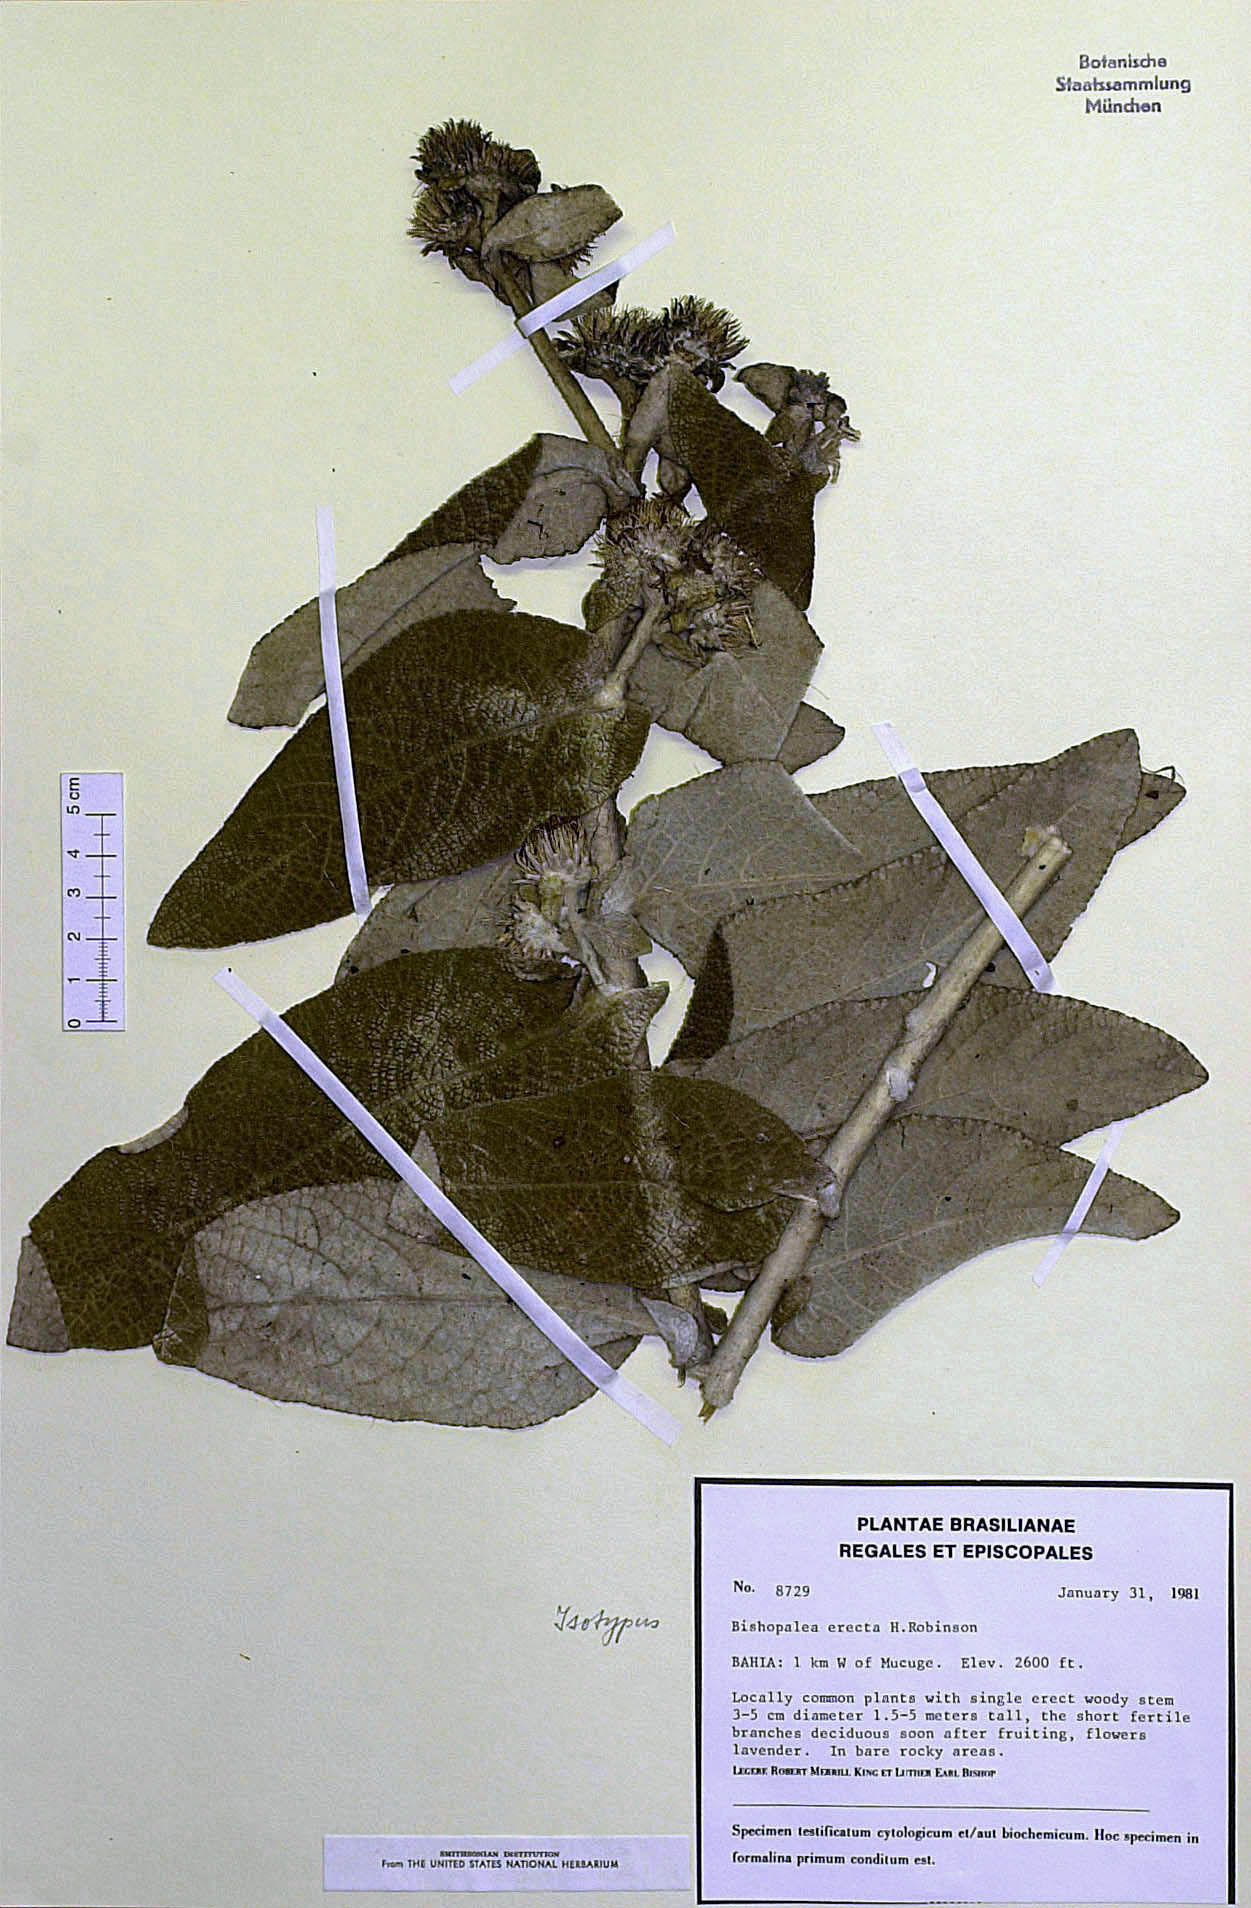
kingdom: Plantae
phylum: Tracheophyta
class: Magnoliopsida
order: Asterales
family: Asteraceae
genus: Heterocoma
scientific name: Heterocoma erecta
